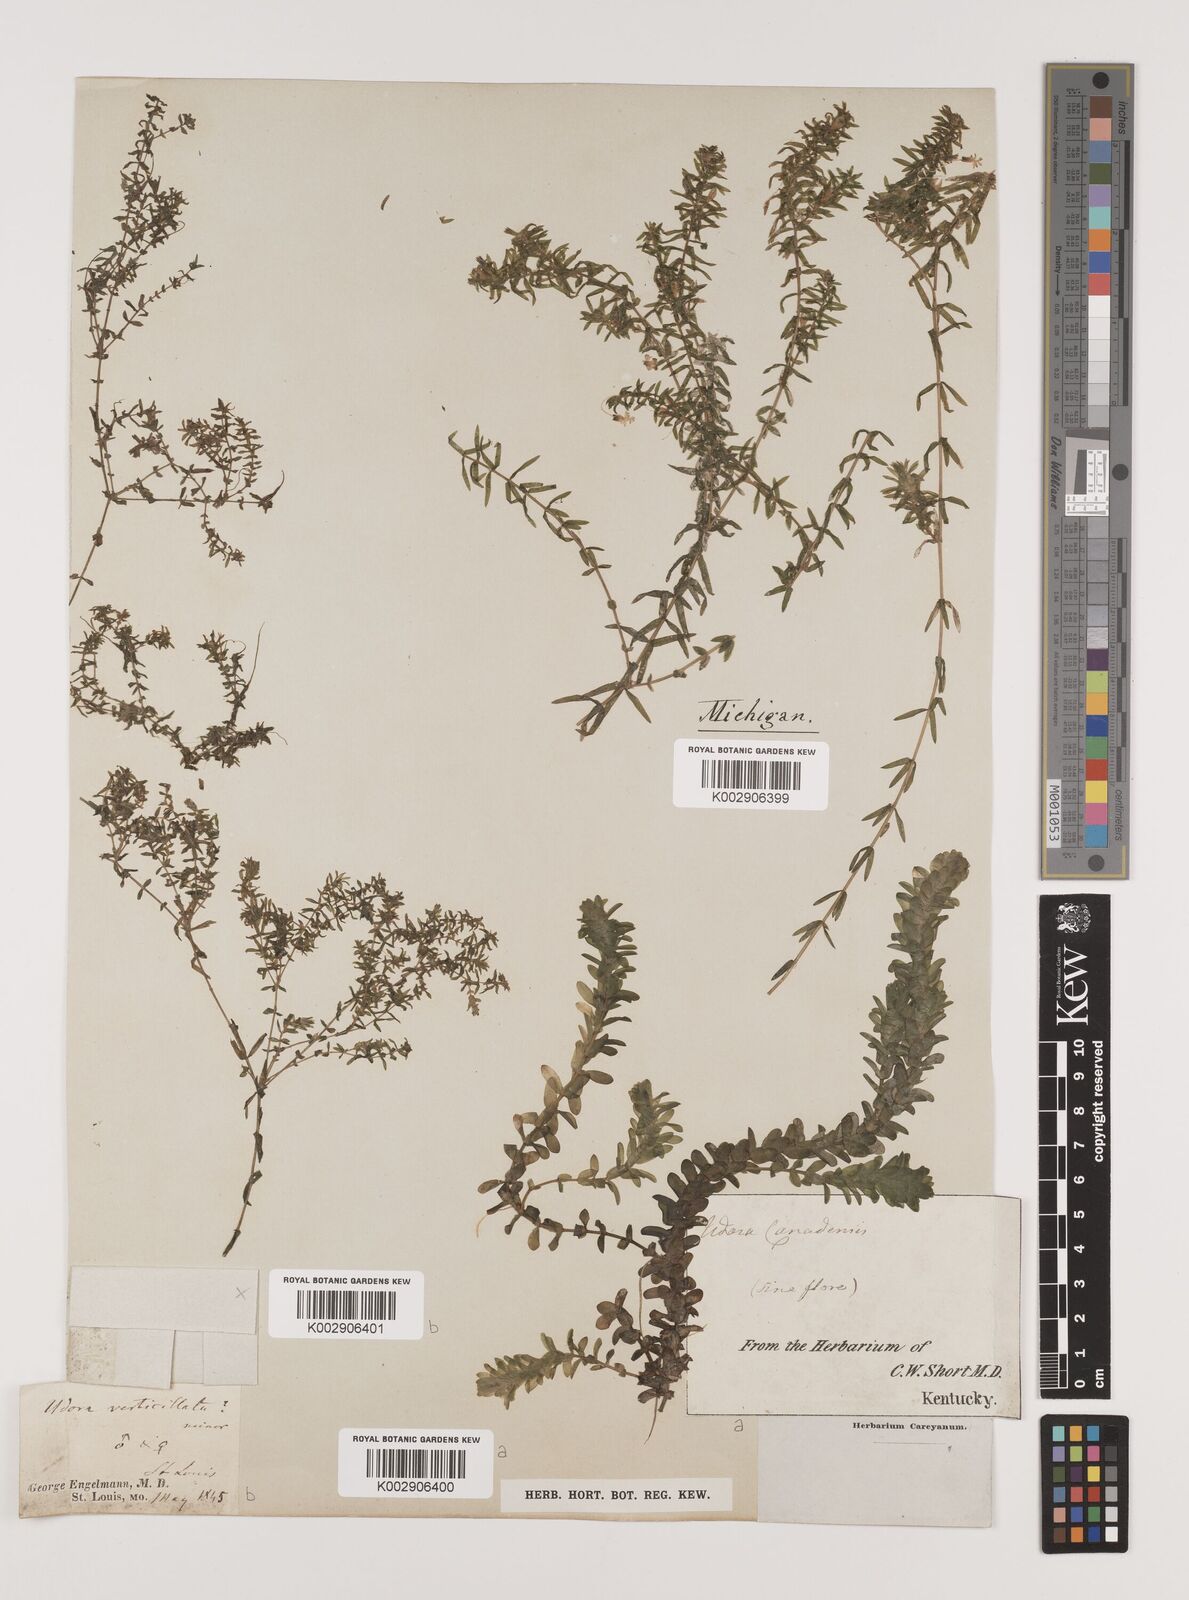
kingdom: Plantae
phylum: Tracheophyta
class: Liliopsida
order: Alismatales
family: Hydrocharitaceae
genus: Elodea
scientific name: Elodea canadensis
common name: Canadian waterweed
